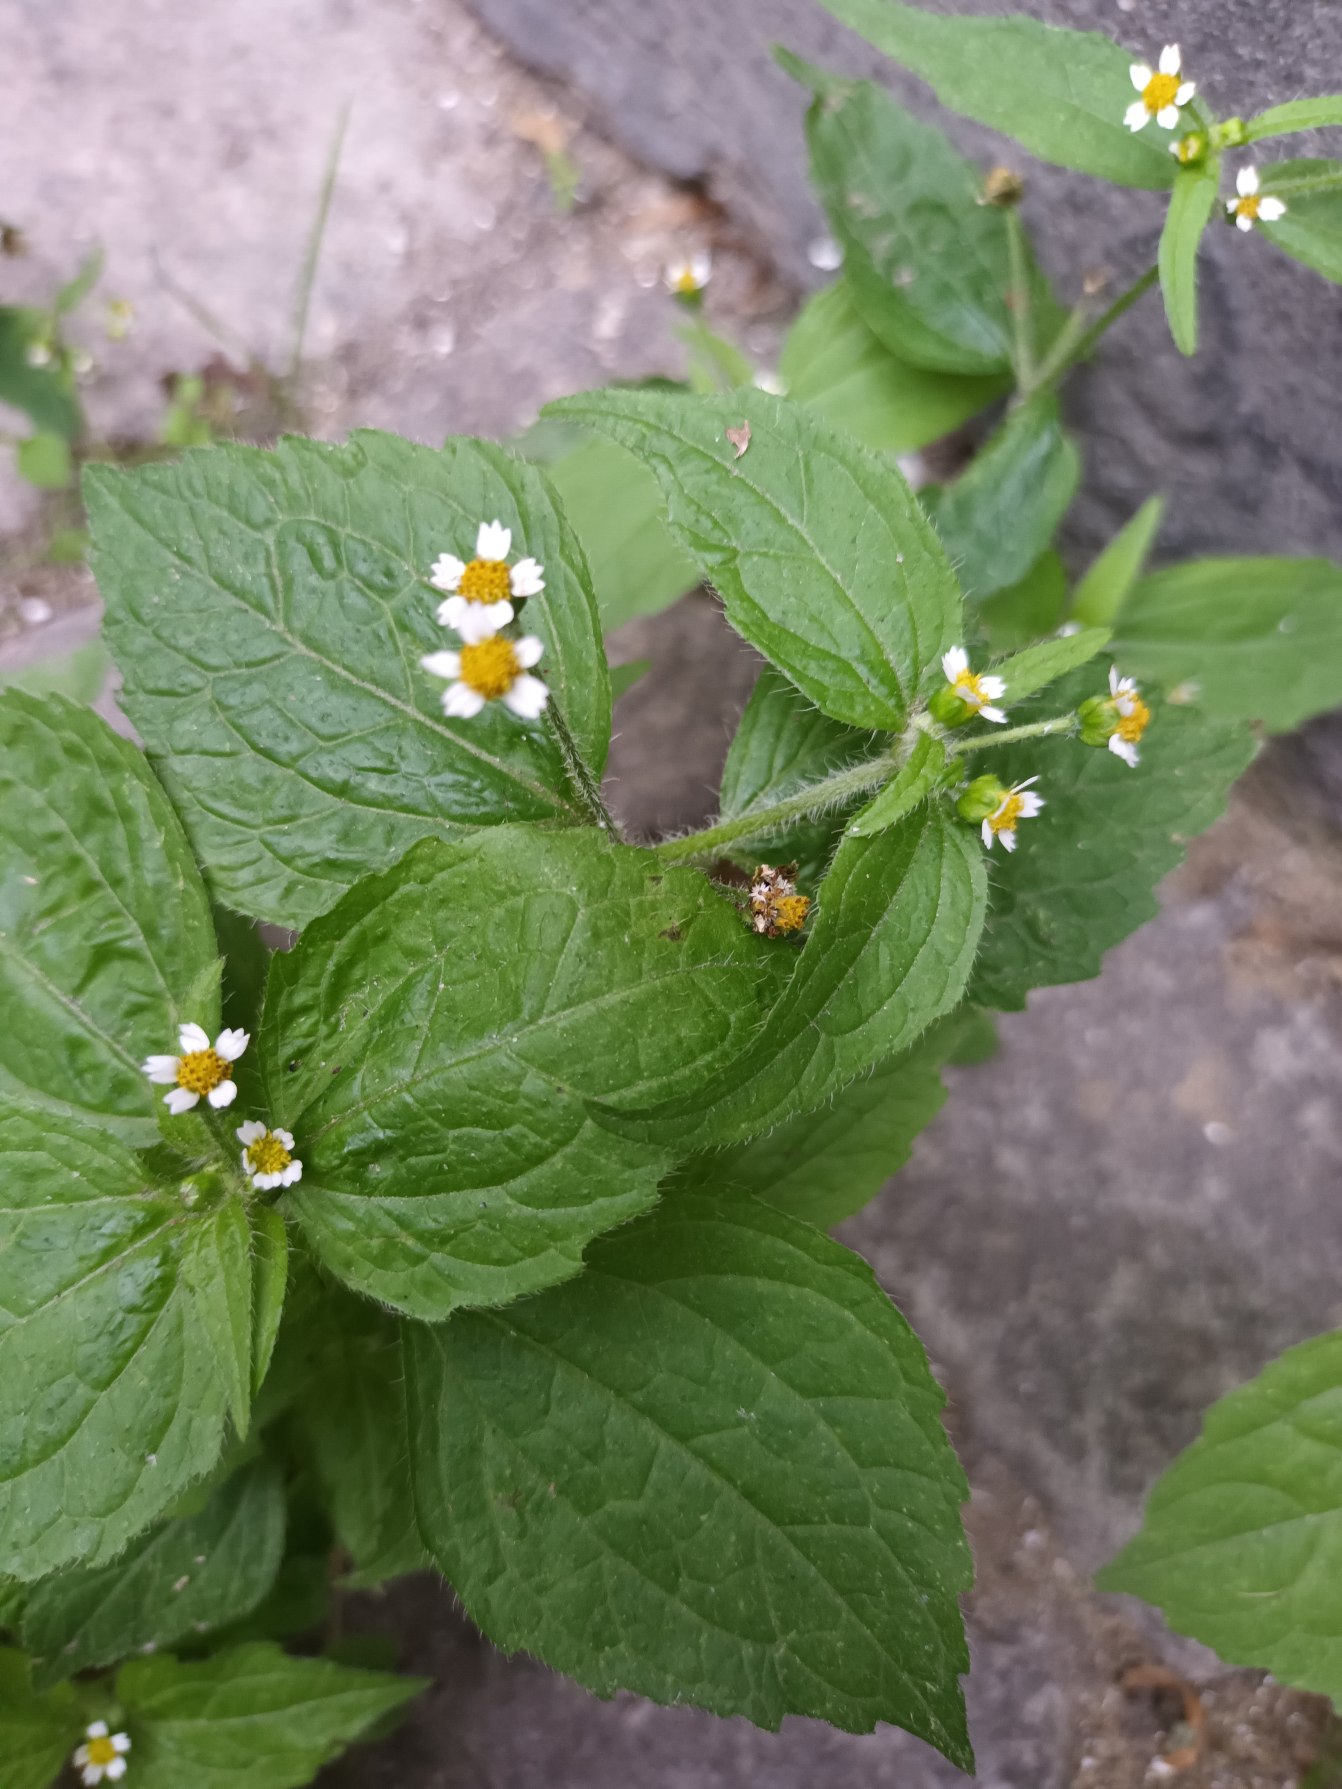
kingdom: Plantae
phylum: Tracheophyta
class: Magnoliopsida
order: Asterales
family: Asteraceae
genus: Galinsoga
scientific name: Galinsoga quadriradiata
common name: Kirtel-kortstråle
